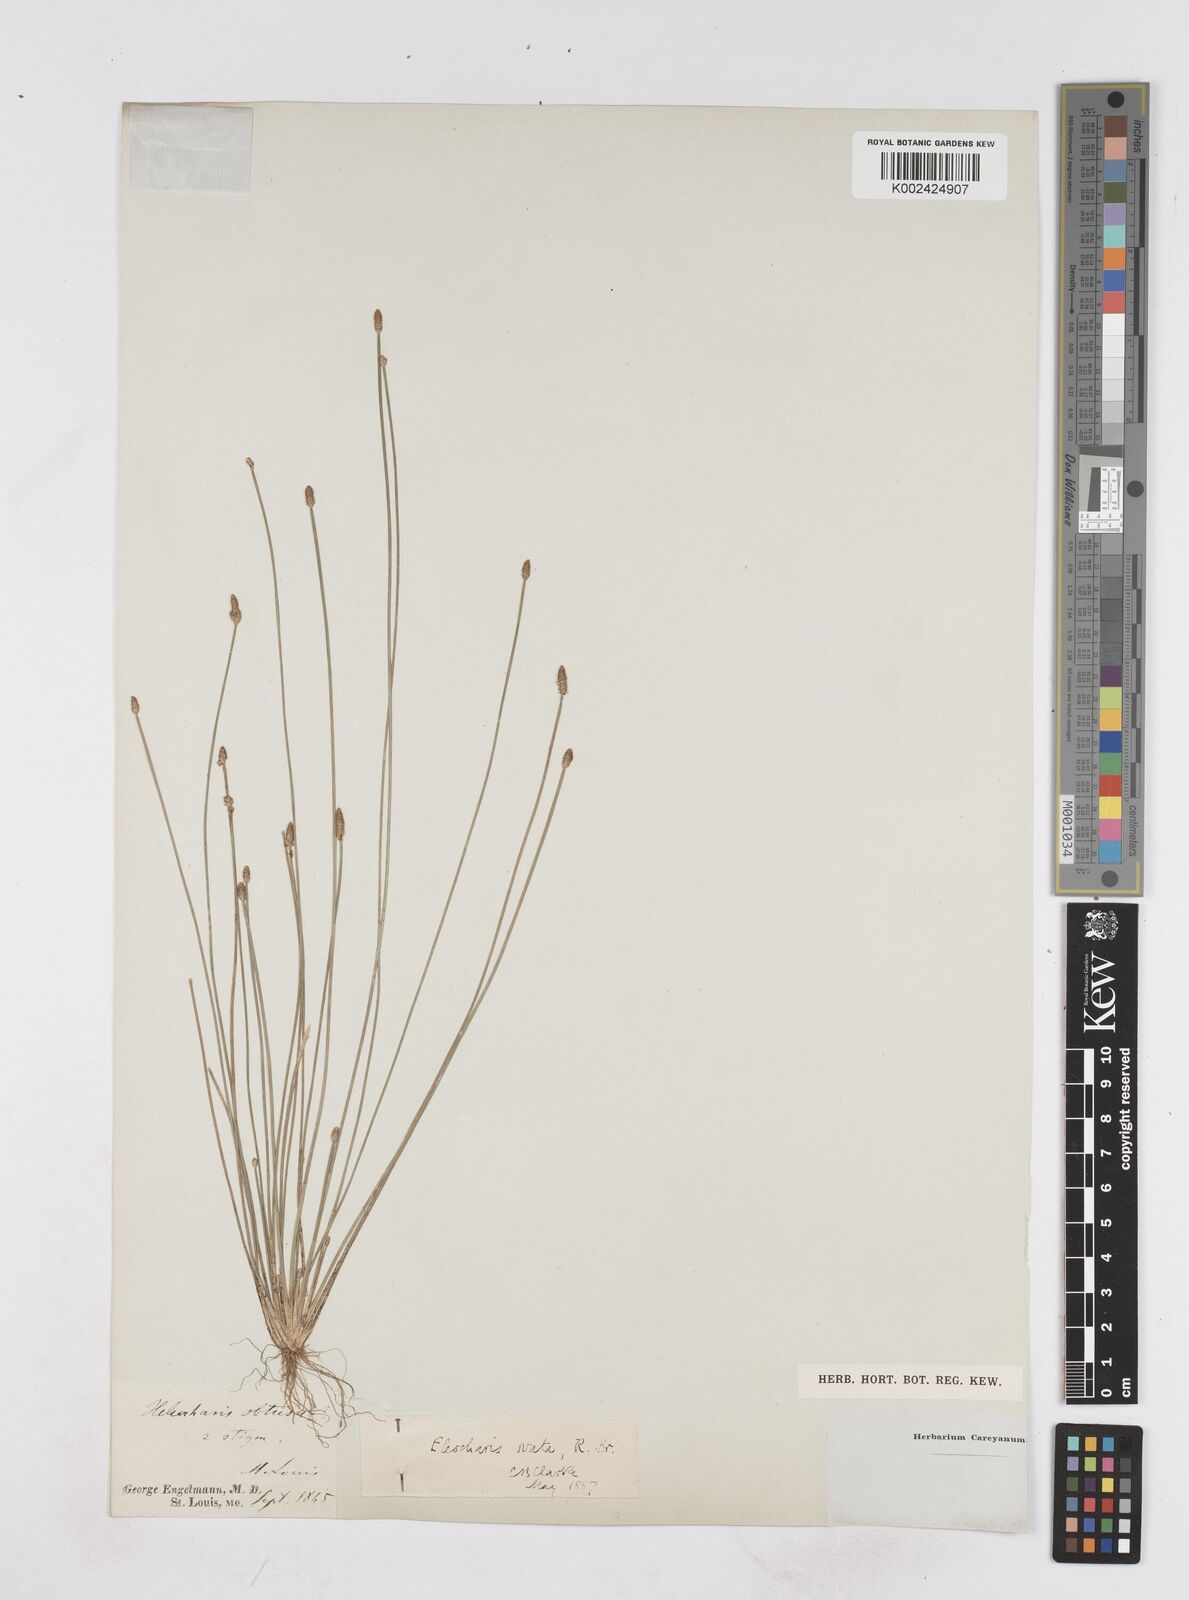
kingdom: Plantae
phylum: Tracheophyta
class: Liliopsida
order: Poales
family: Cyperaceae
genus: Eleocharis
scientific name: Eleocharis ovata
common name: Oval spike-rush
